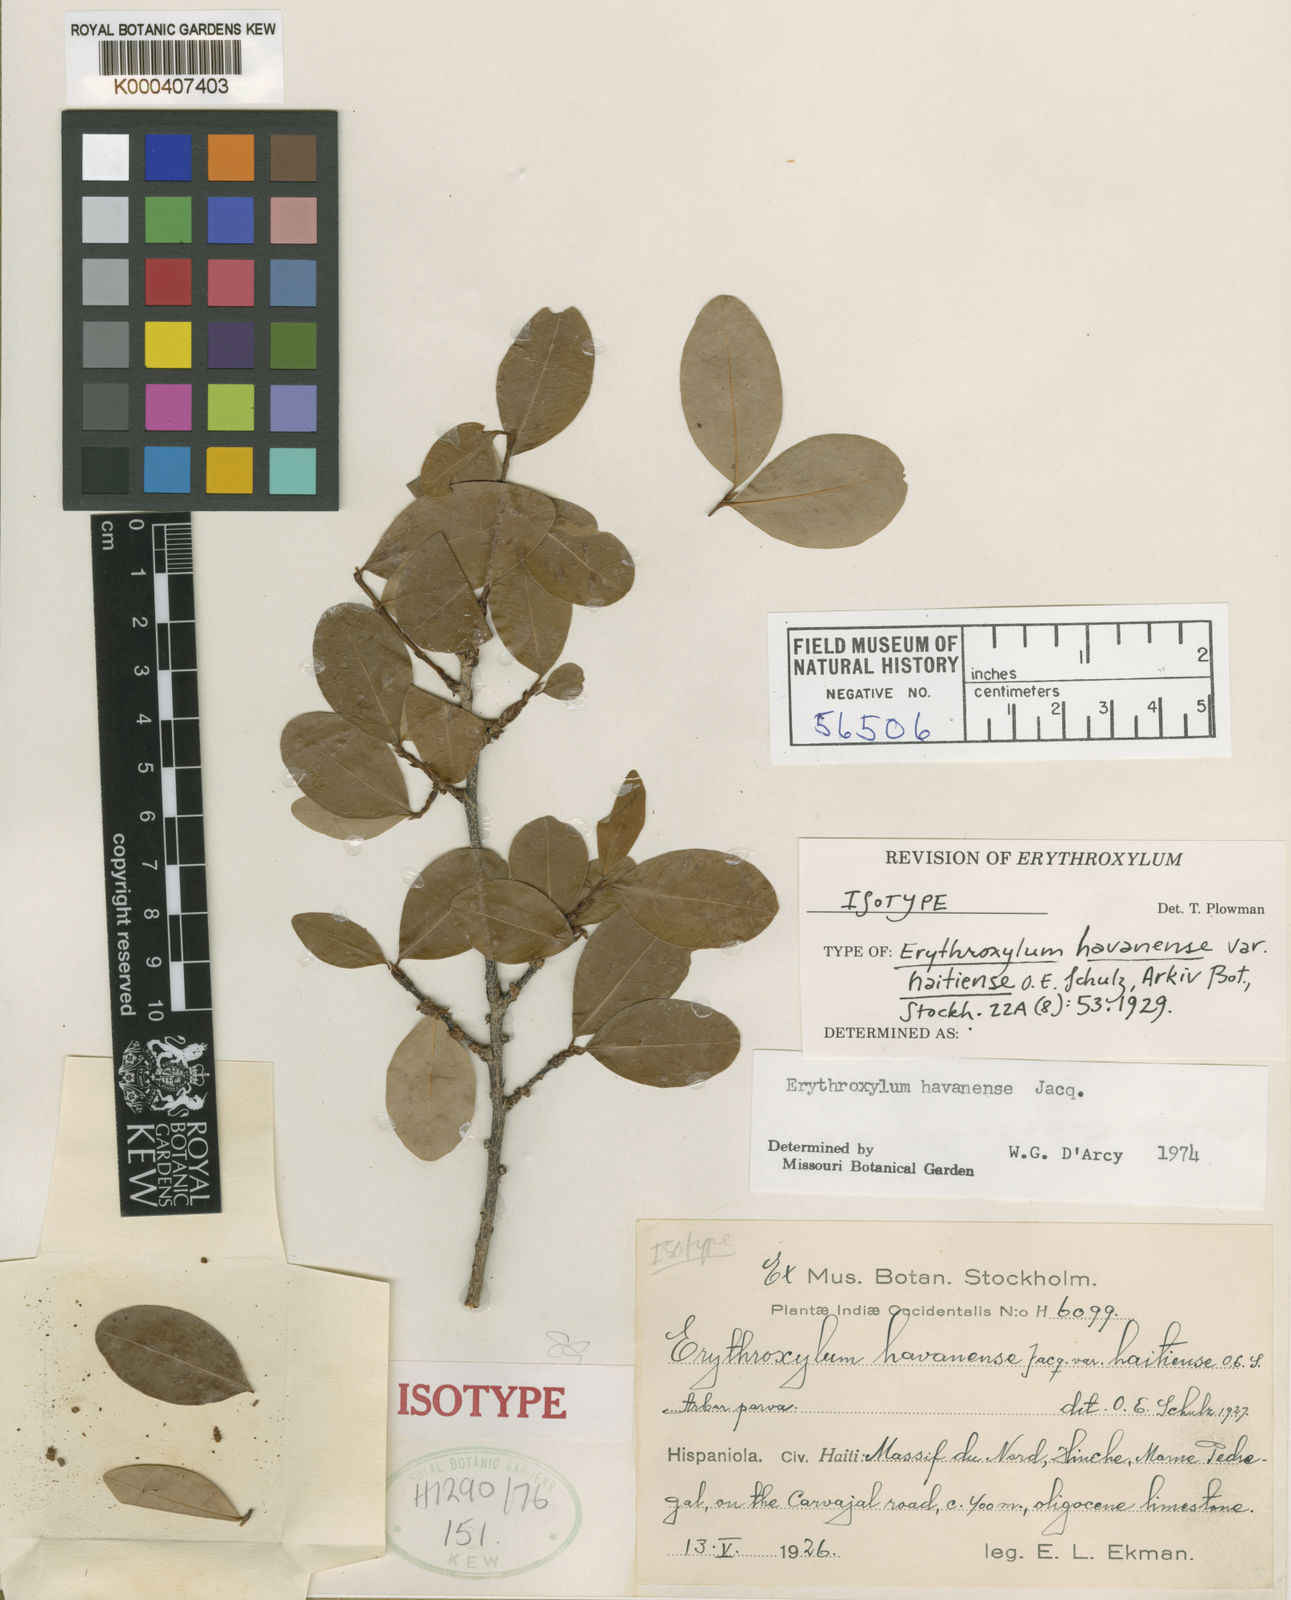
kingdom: Plantae
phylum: Tracheophyta
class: Magnoliopsida
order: Malpighiales
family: Erythroxylaceae
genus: Erythroxylum
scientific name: Erythroxylum havanense
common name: Bracelet
